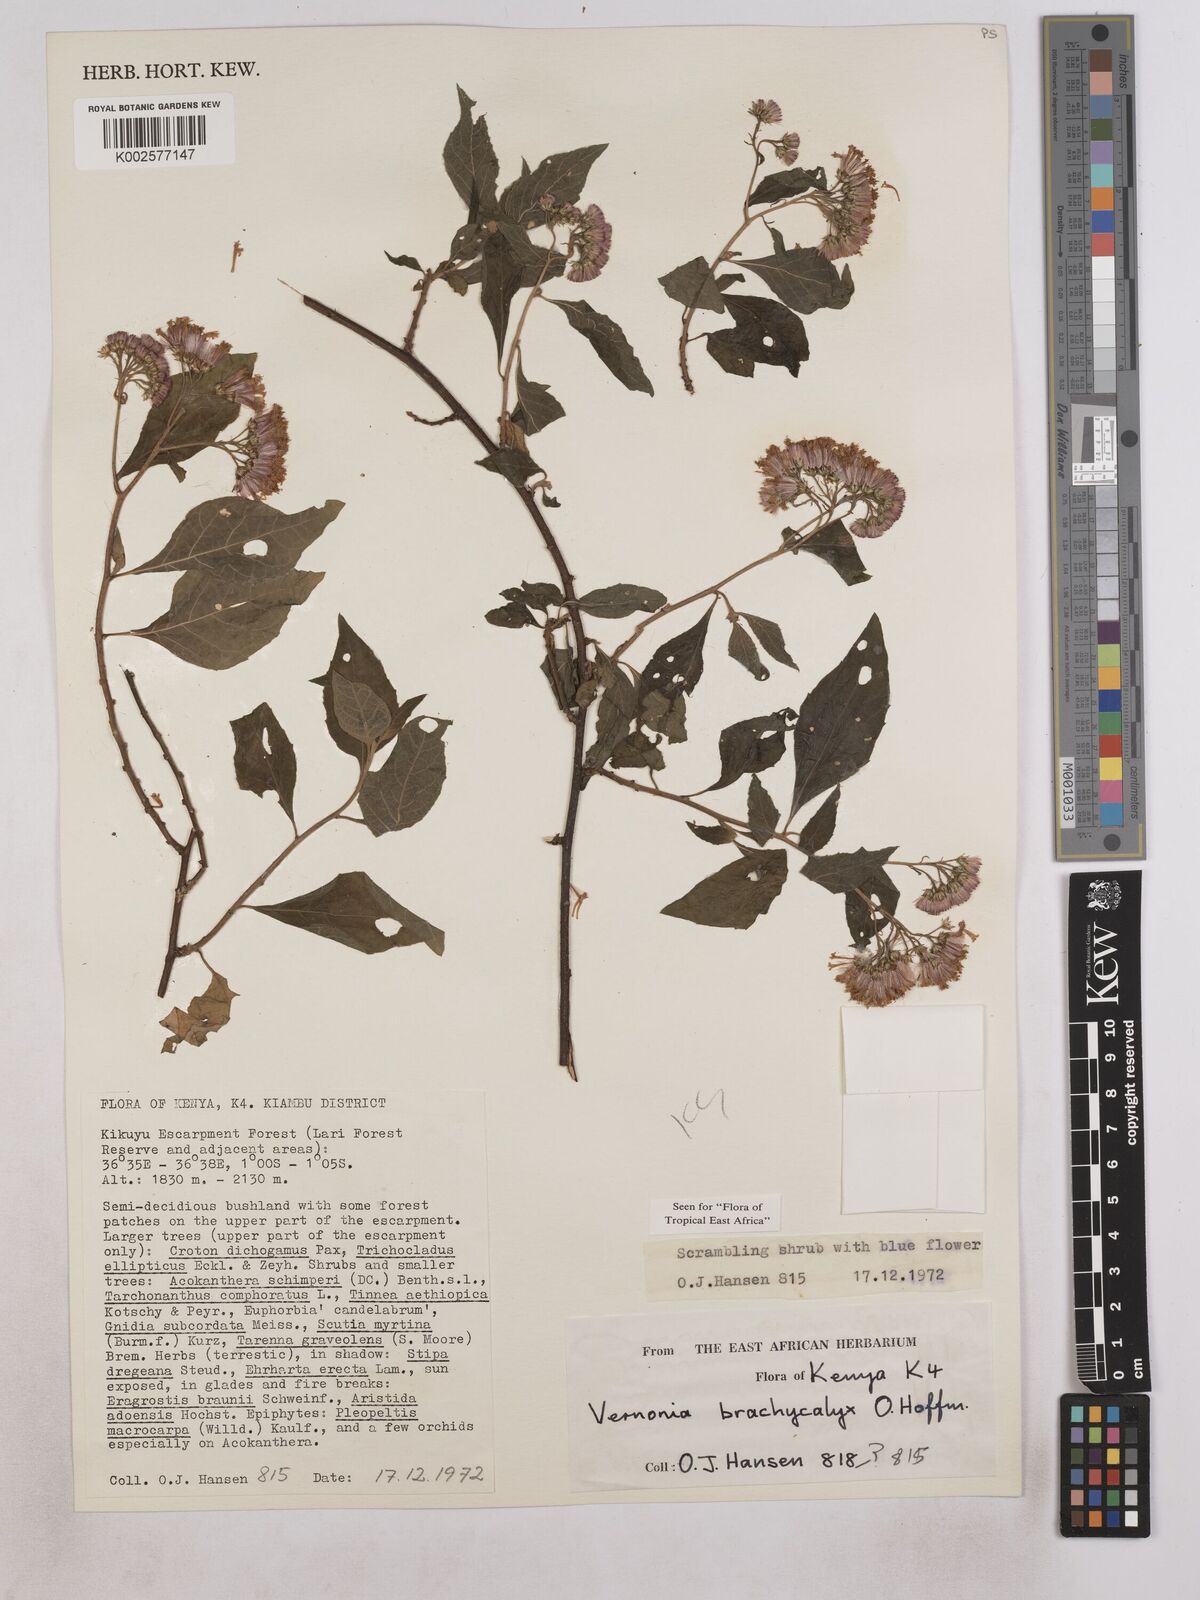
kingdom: Plantae
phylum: Tracheophyta
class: Magnoliopsida
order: Asterales
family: Asteraceae
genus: Hoffmannanthus
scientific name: Hoffmannanthus abbotianus
